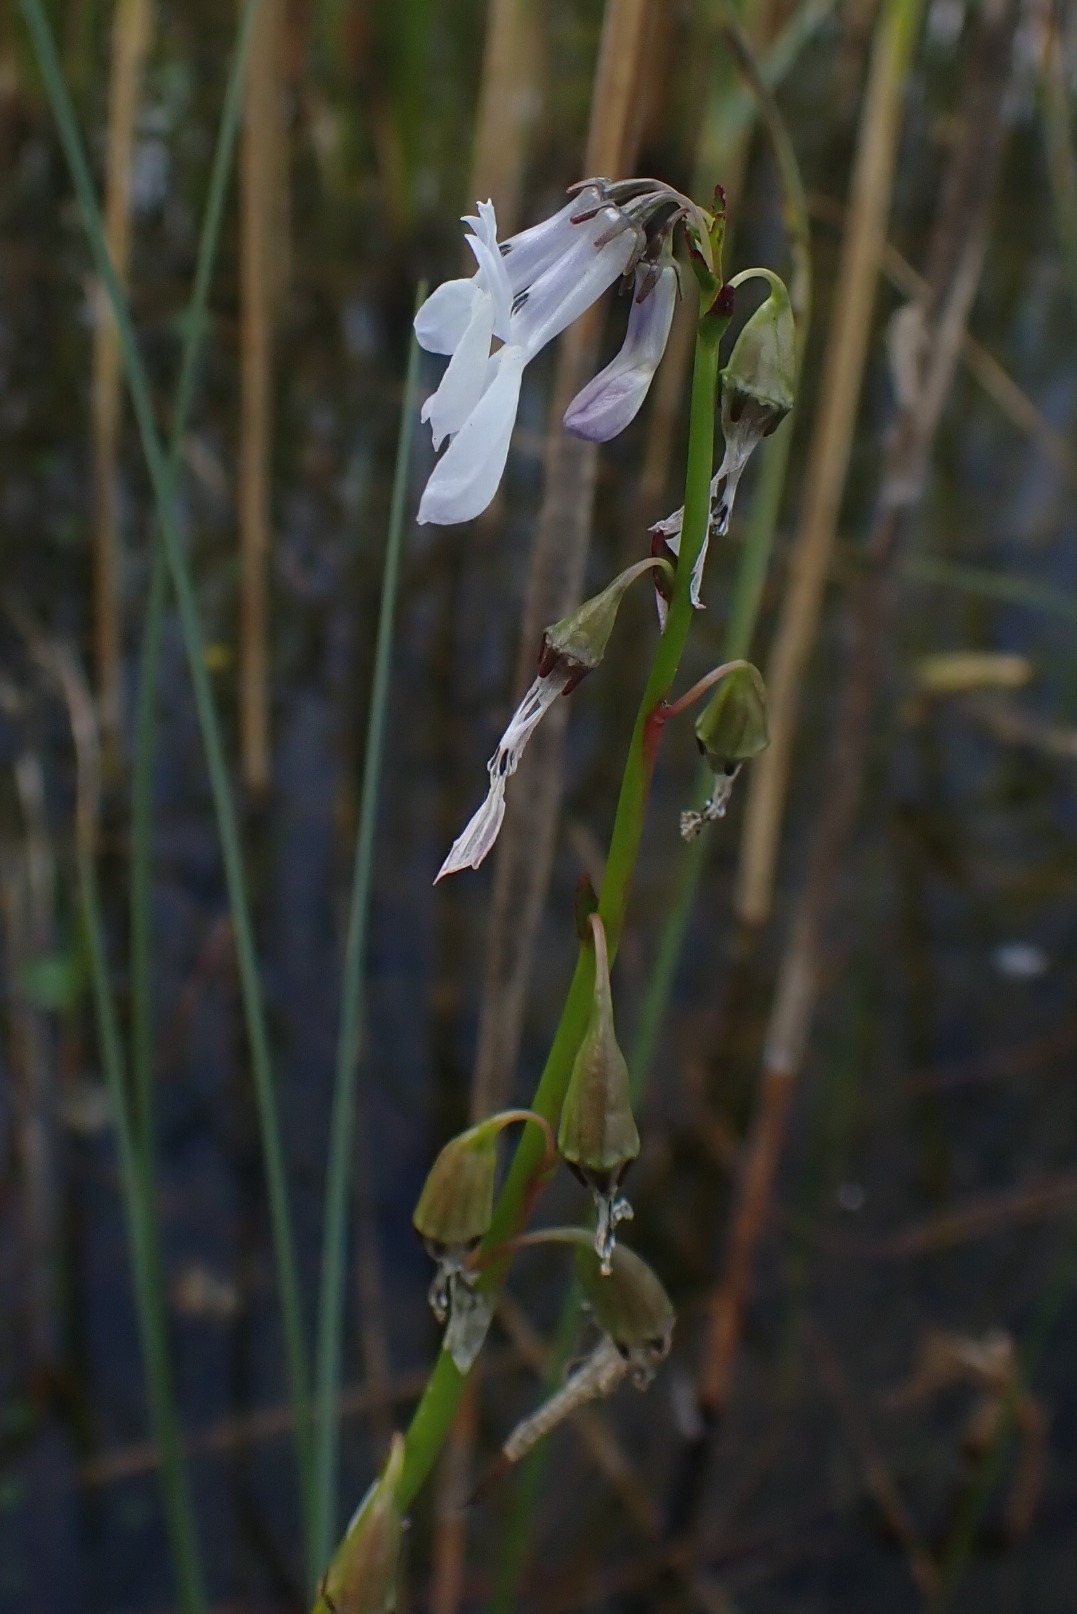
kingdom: Plantae
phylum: Tracheophyta
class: Magnoliopsida
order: Asterales
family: Campanulaceae
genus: Lobelia
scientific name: Lobelia dortmanna
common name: Tvepibet lobelie
